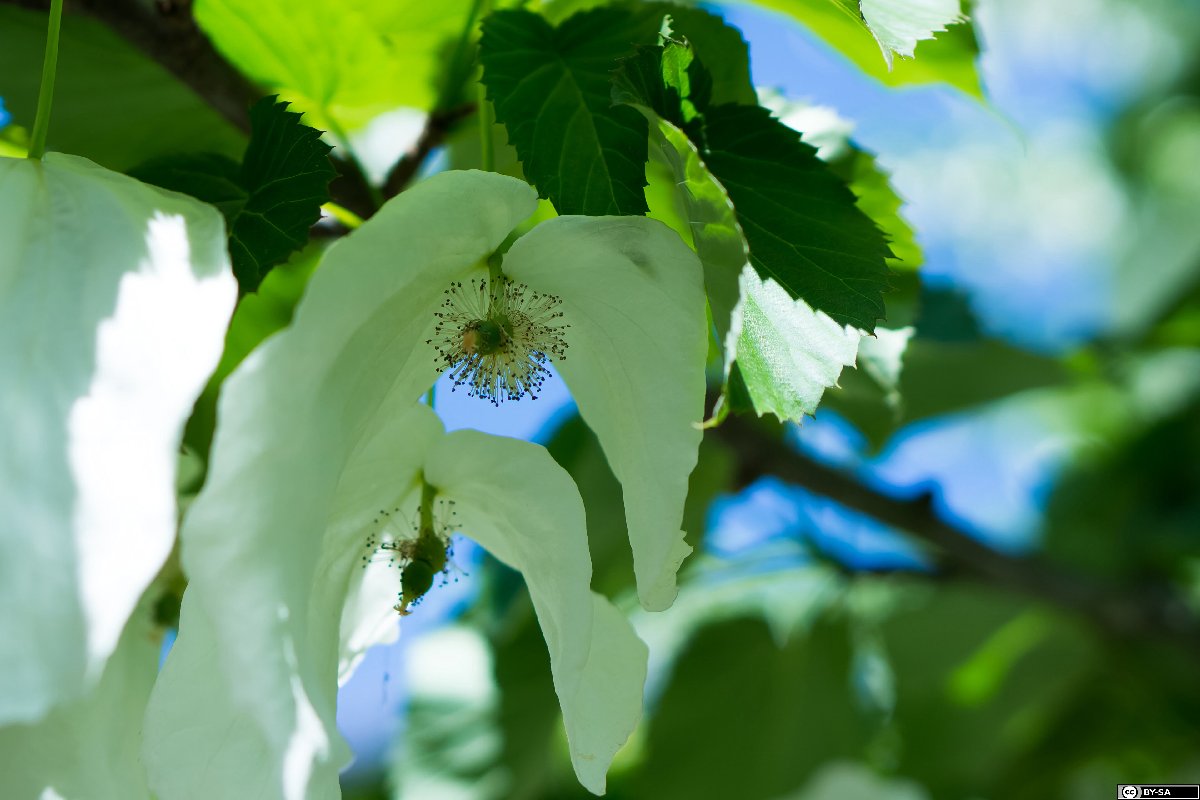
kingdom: Plantae
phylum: Tracheophyta
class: Magnoliopsida
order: Cornales
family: Nyssaceae
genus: Davidia
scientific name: Davidia involucrata
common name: Handkerchief-tree
